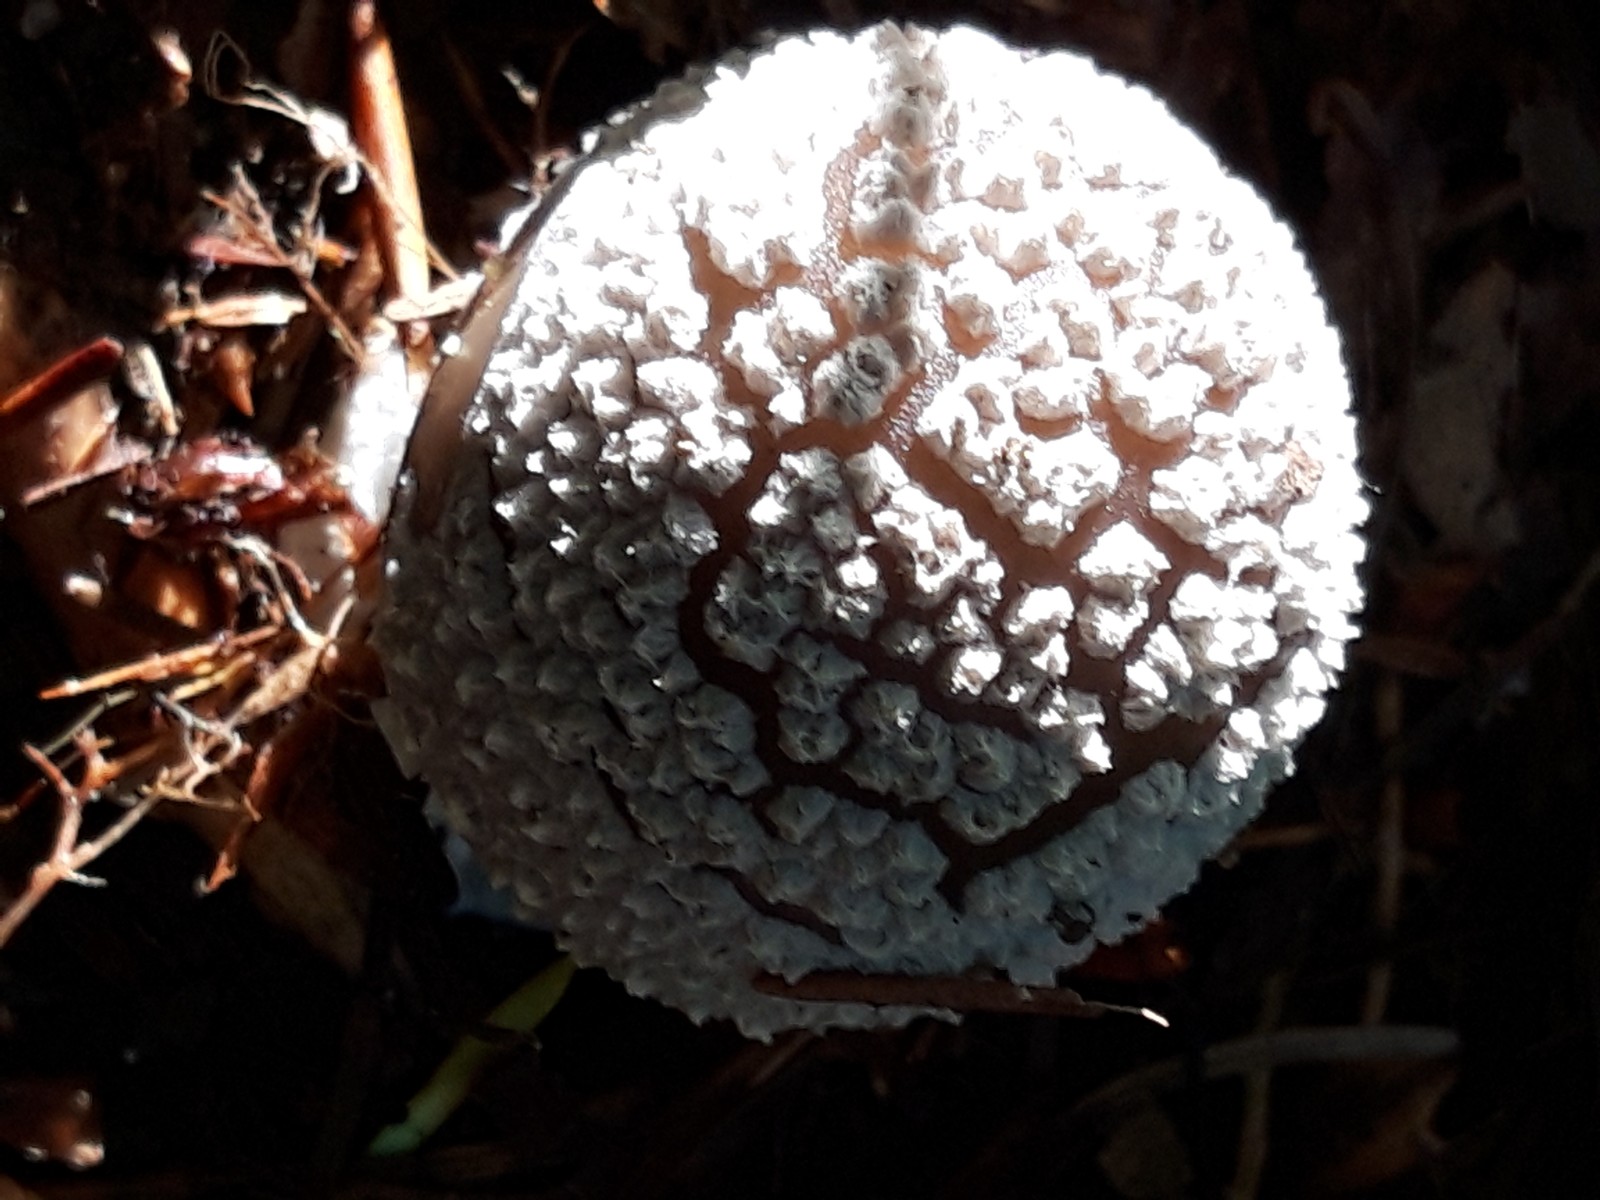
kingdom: Fungi
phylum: Basidiomycota
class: Agaricomycetes
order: Agaricales
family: Amanitaceae
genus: Amanita
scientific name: Amanita rubescens
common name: rødmende fluesvamp
